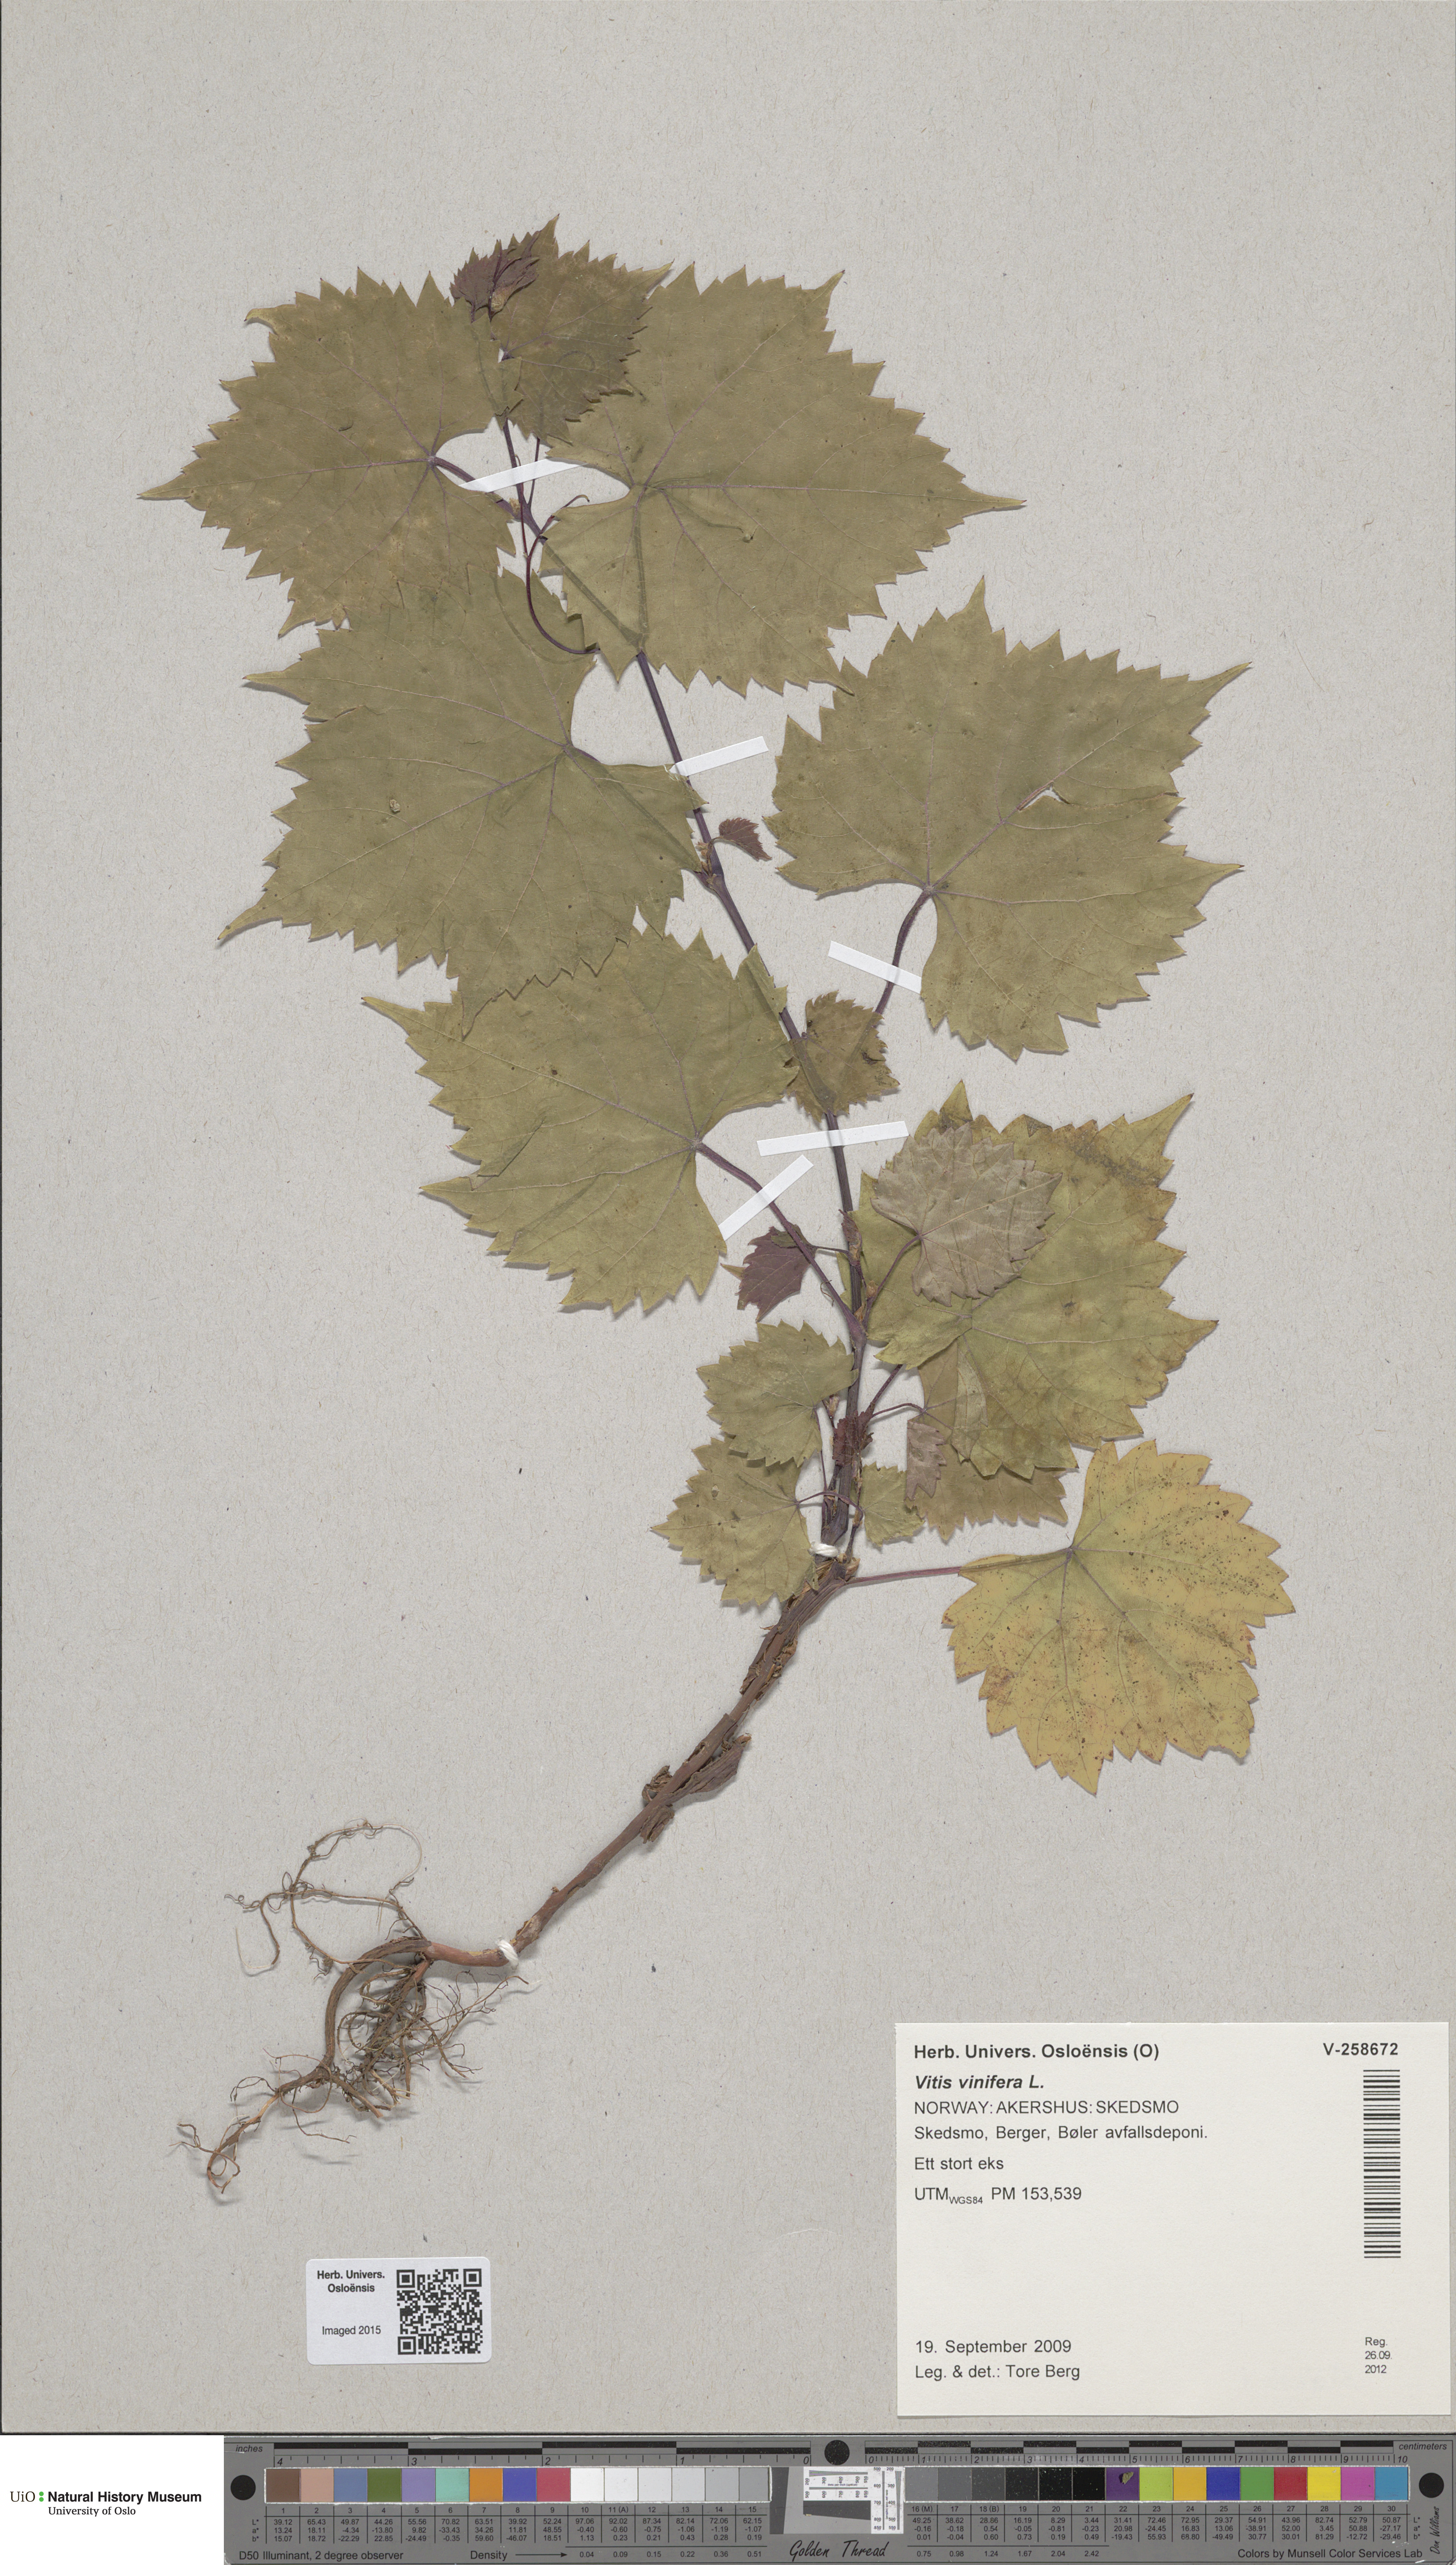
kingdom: Plantae
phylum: Tracheophyta
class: Magnoliopsida
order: Vitales
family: Vitaceae
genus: Vitis
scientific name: Vitis vinifera
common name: Grape-vine
